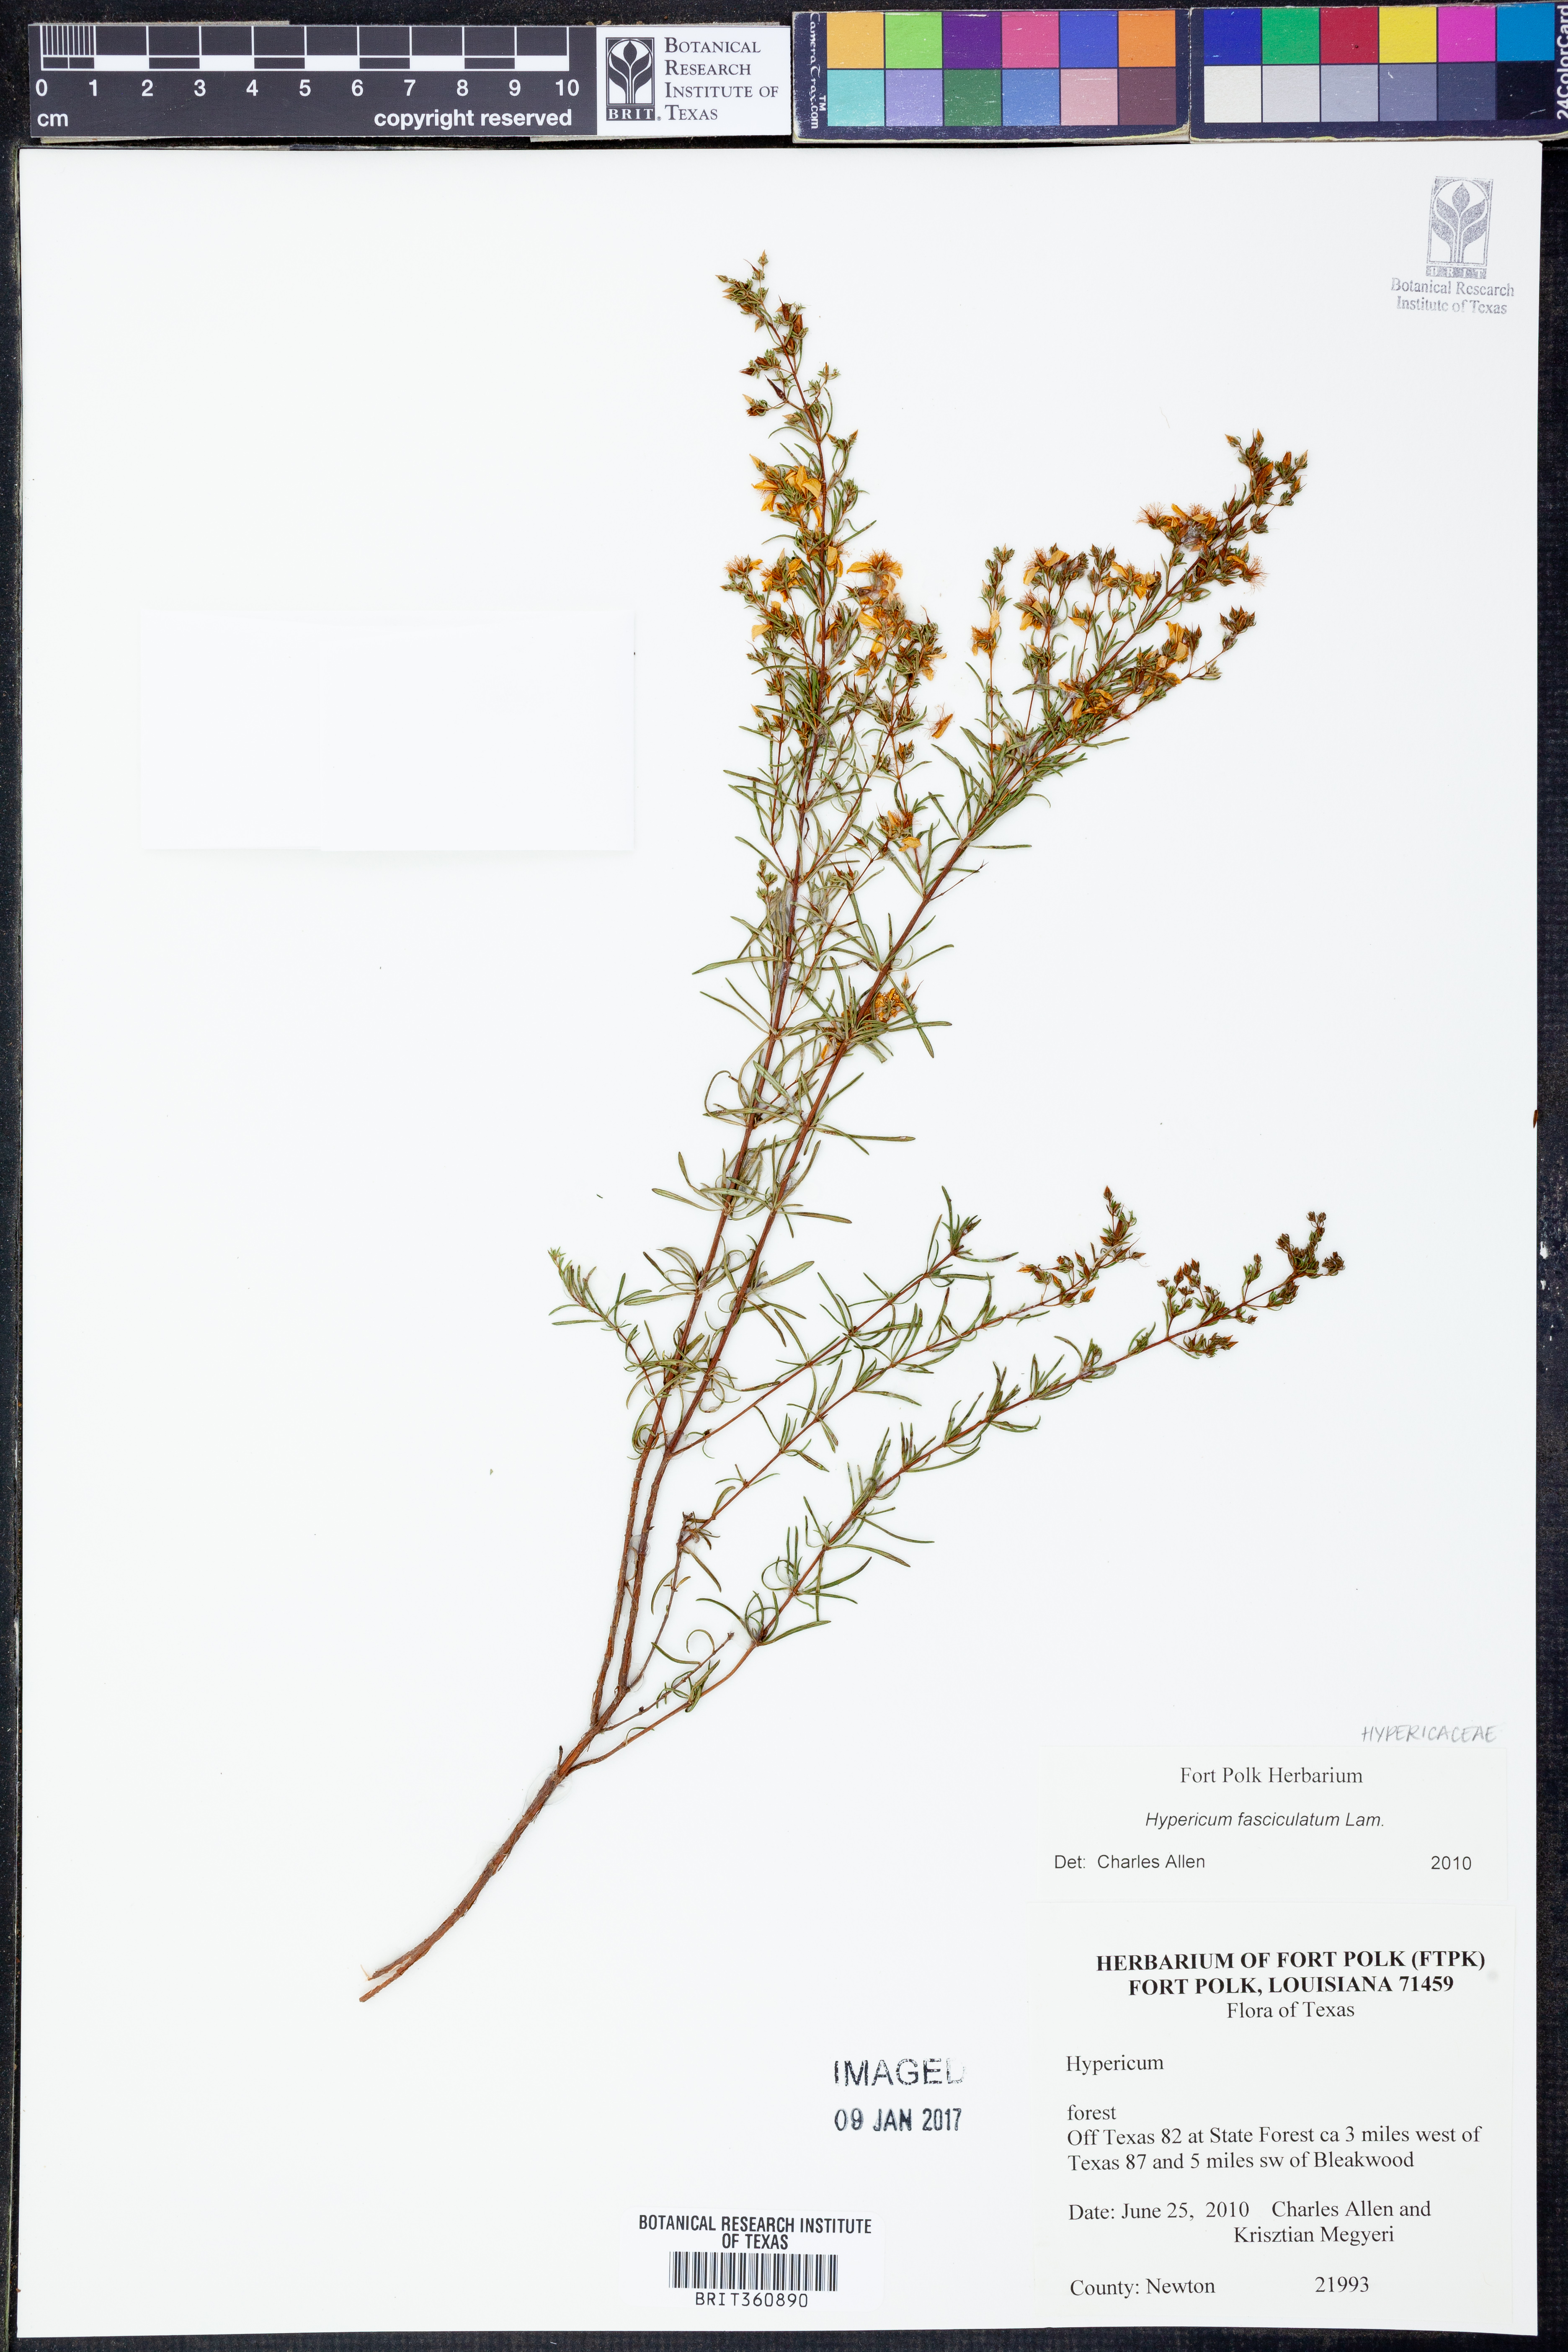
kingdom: Plantae
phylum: Tracheophyta
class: Magnoliopsida
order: Malpighiales
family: Hypericaceae
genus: Hypericum
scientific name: Hypericum fasciculatum
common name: Peelbark st. john's wort
